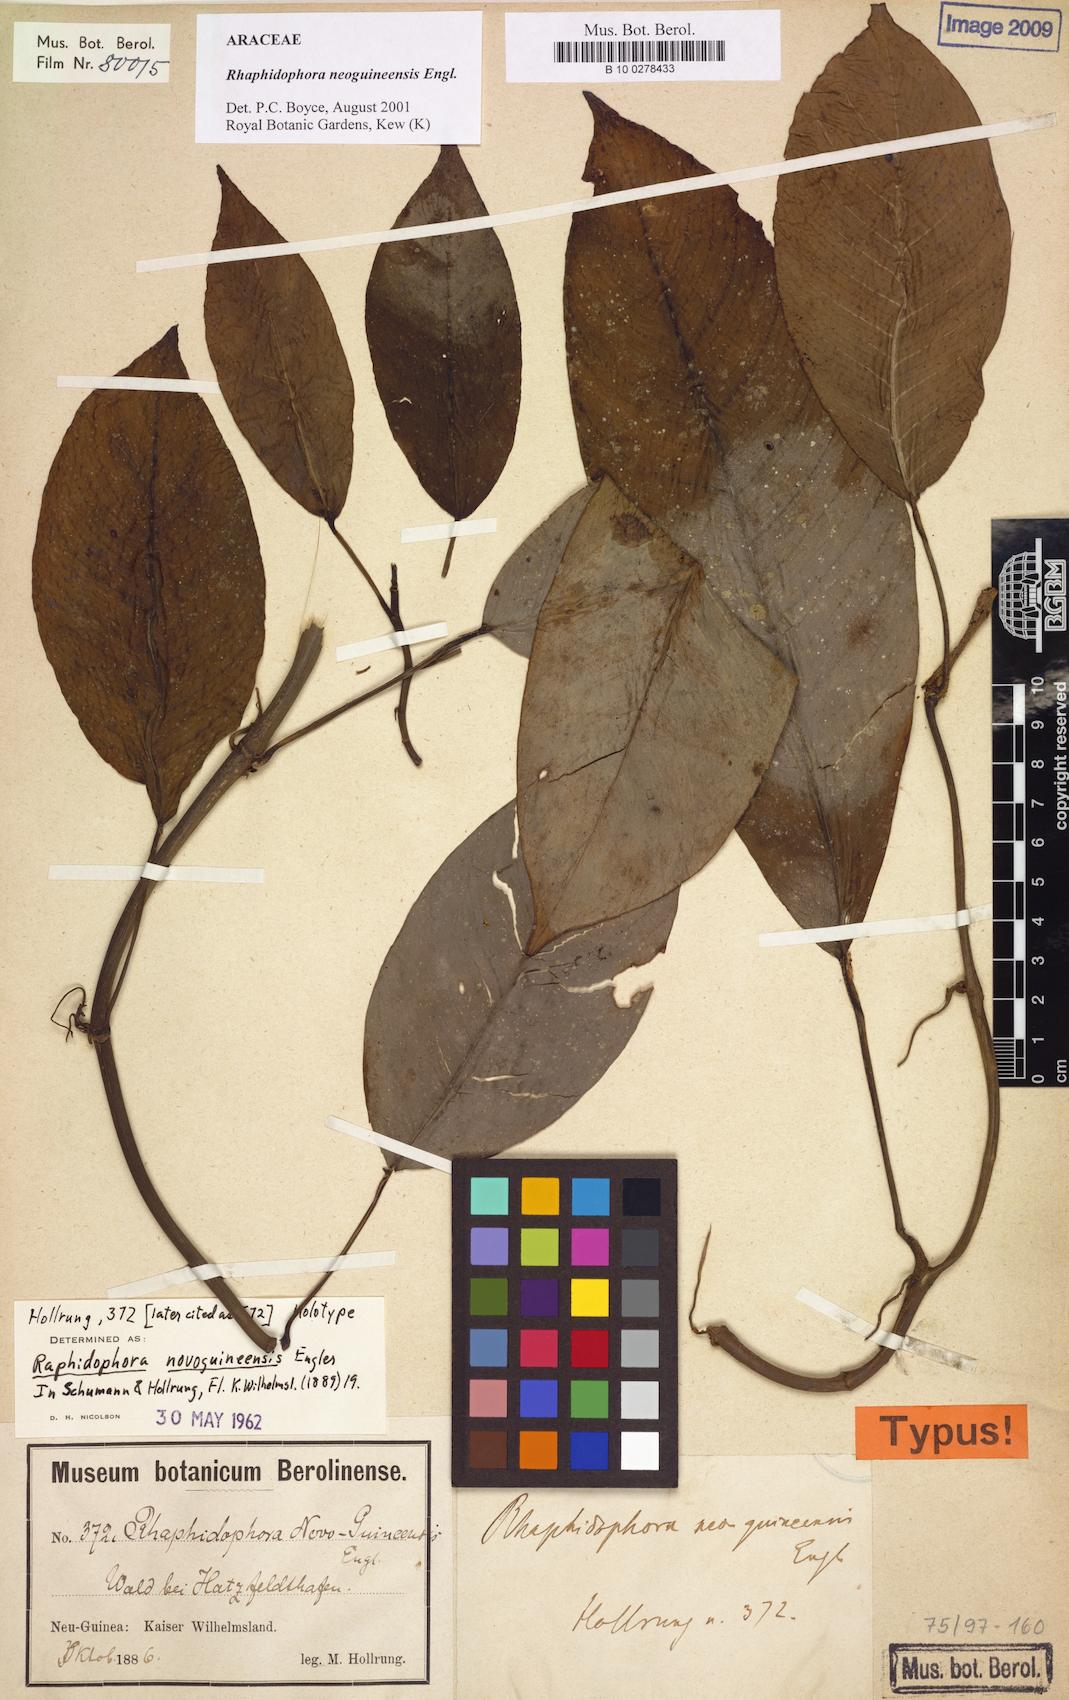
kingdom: Plantae
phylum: Tracheophyta
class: Liliopsida
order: Alismatales
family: Araceae
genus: Rhaphidophora
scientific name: Rhaphidophora neoguineensis
